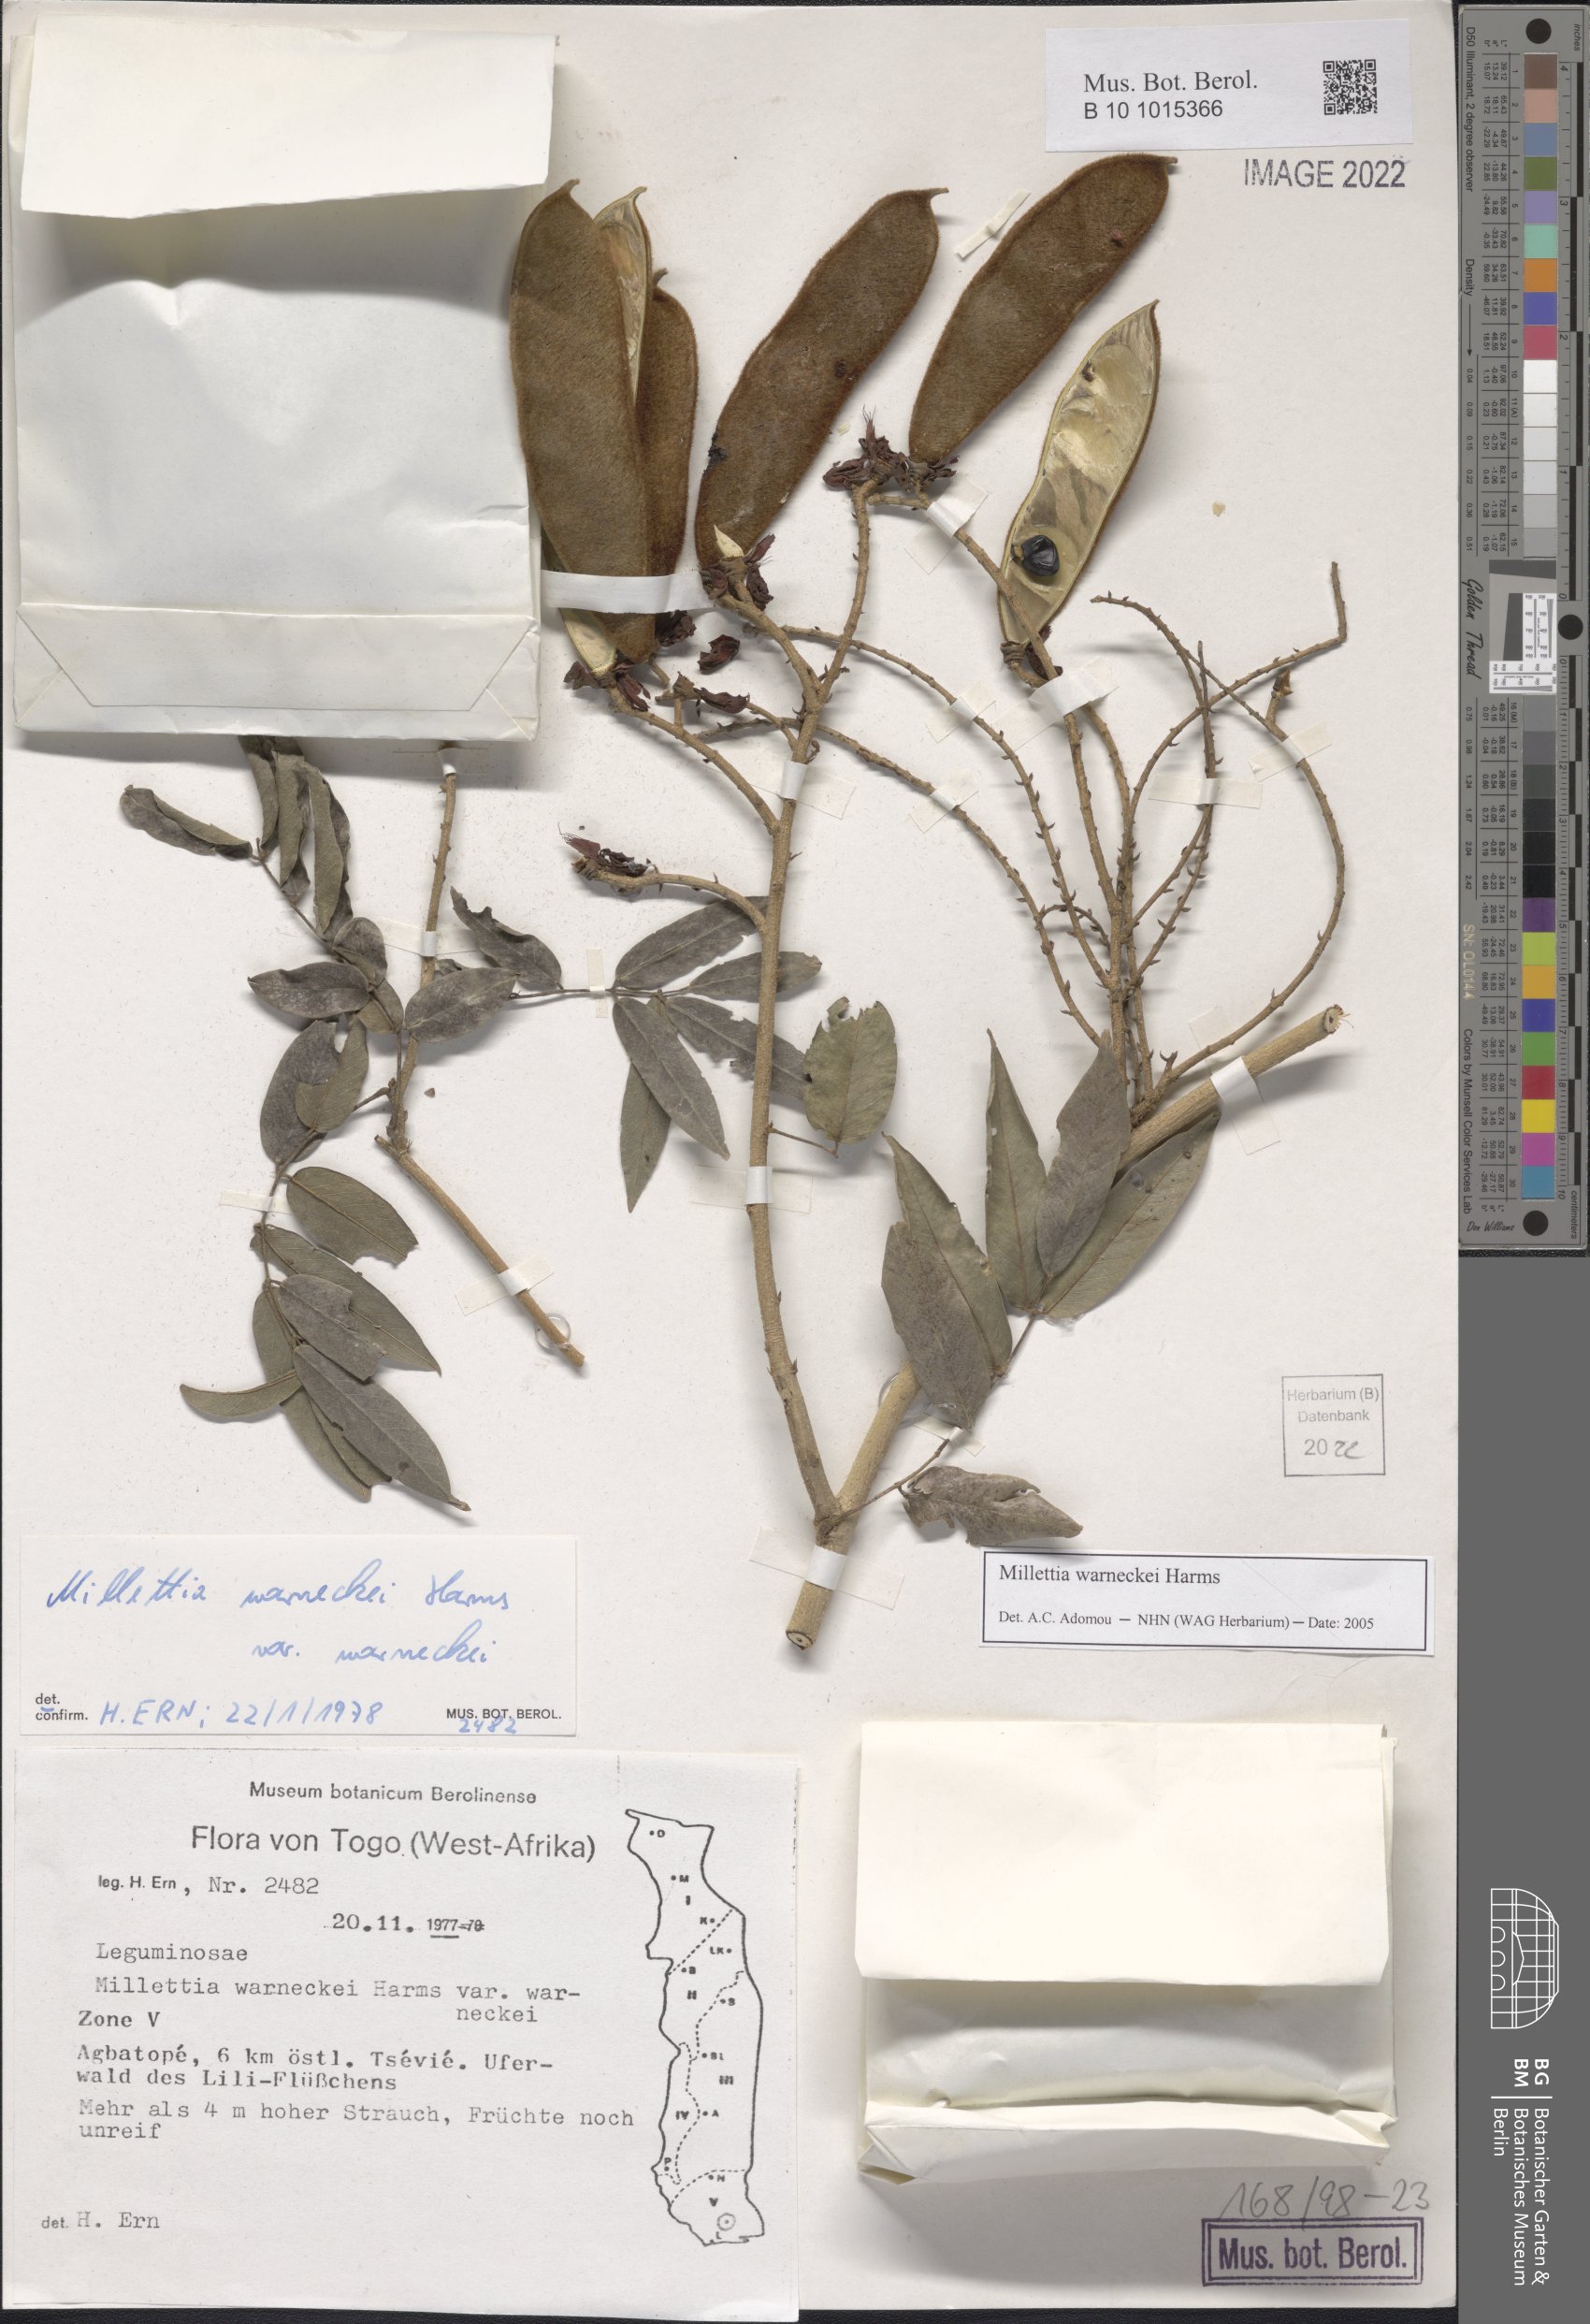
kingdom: Plantae
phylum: Tracheophyta
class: Magnoliopsida
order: Fabales
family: Fabaceae
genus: Millettia
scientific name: Millettia warneckei
